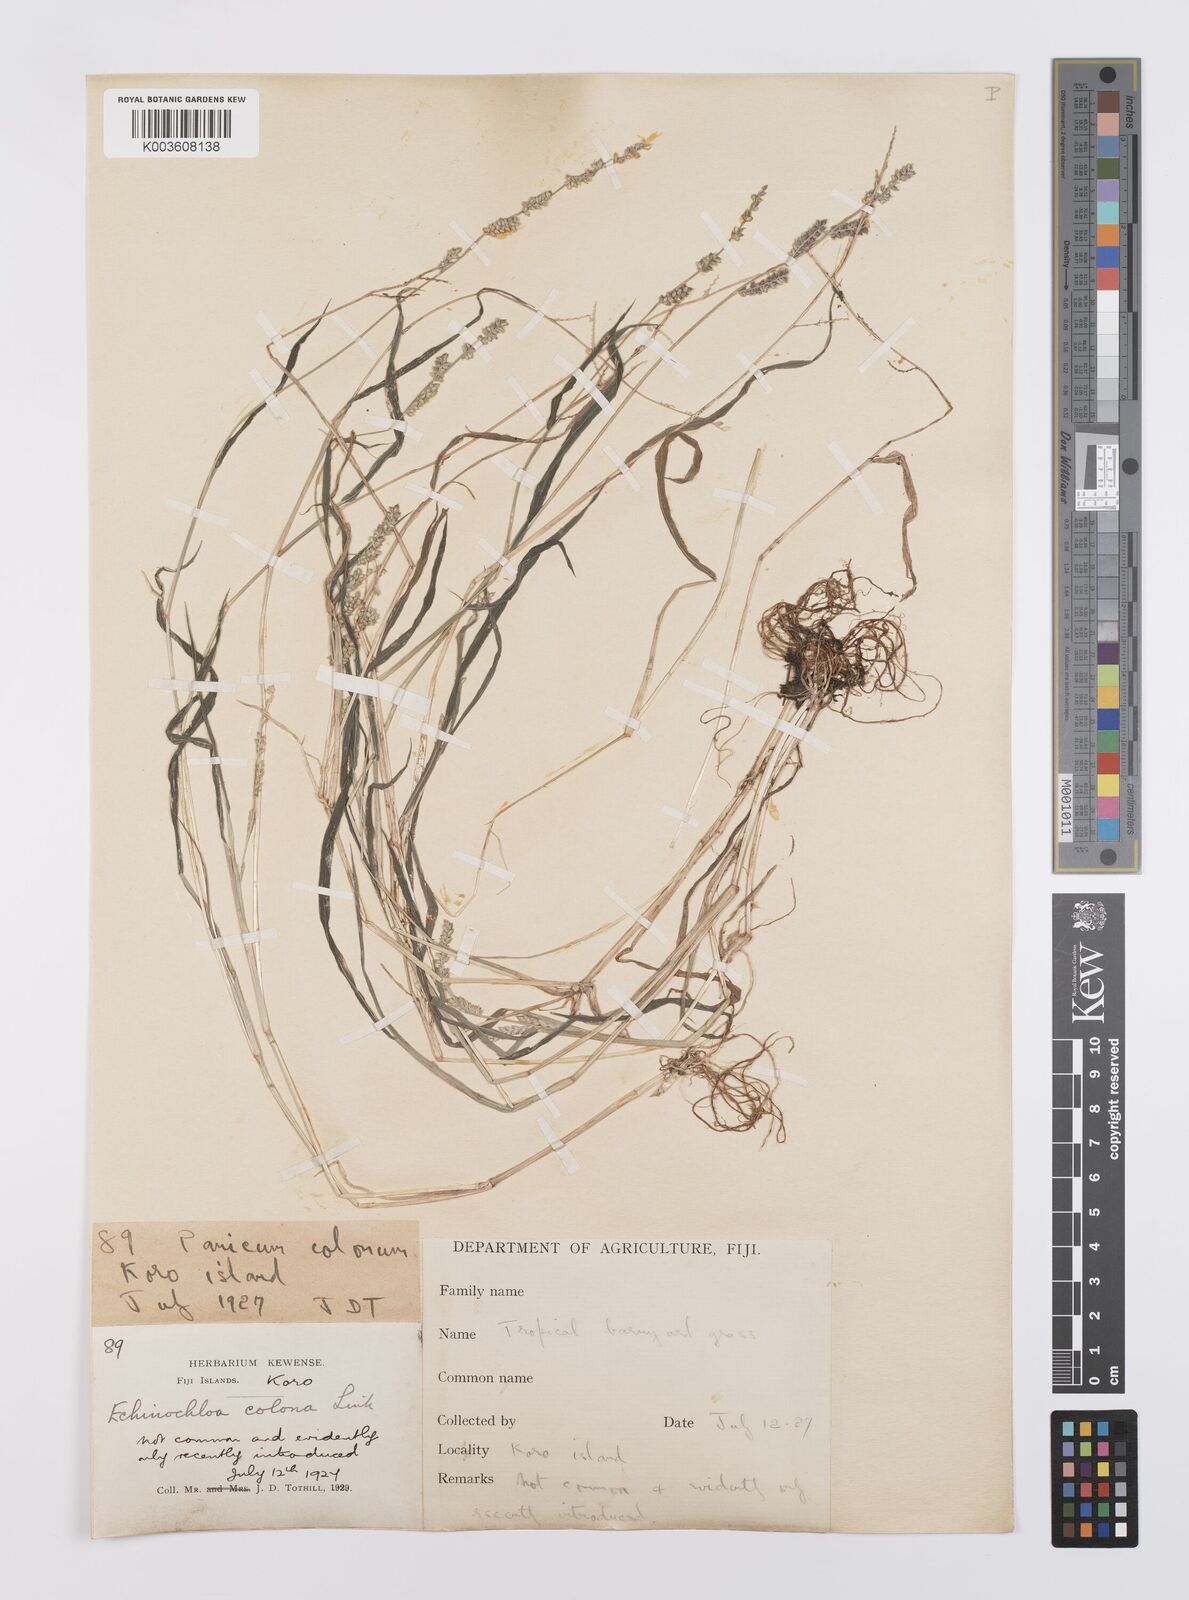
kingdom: Plantae
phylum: Tracheophyta
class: Liliopsida
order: Poales
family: Poaceae
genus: Echinochloa
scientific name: Echinochloa colonum
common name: Jungle rice
